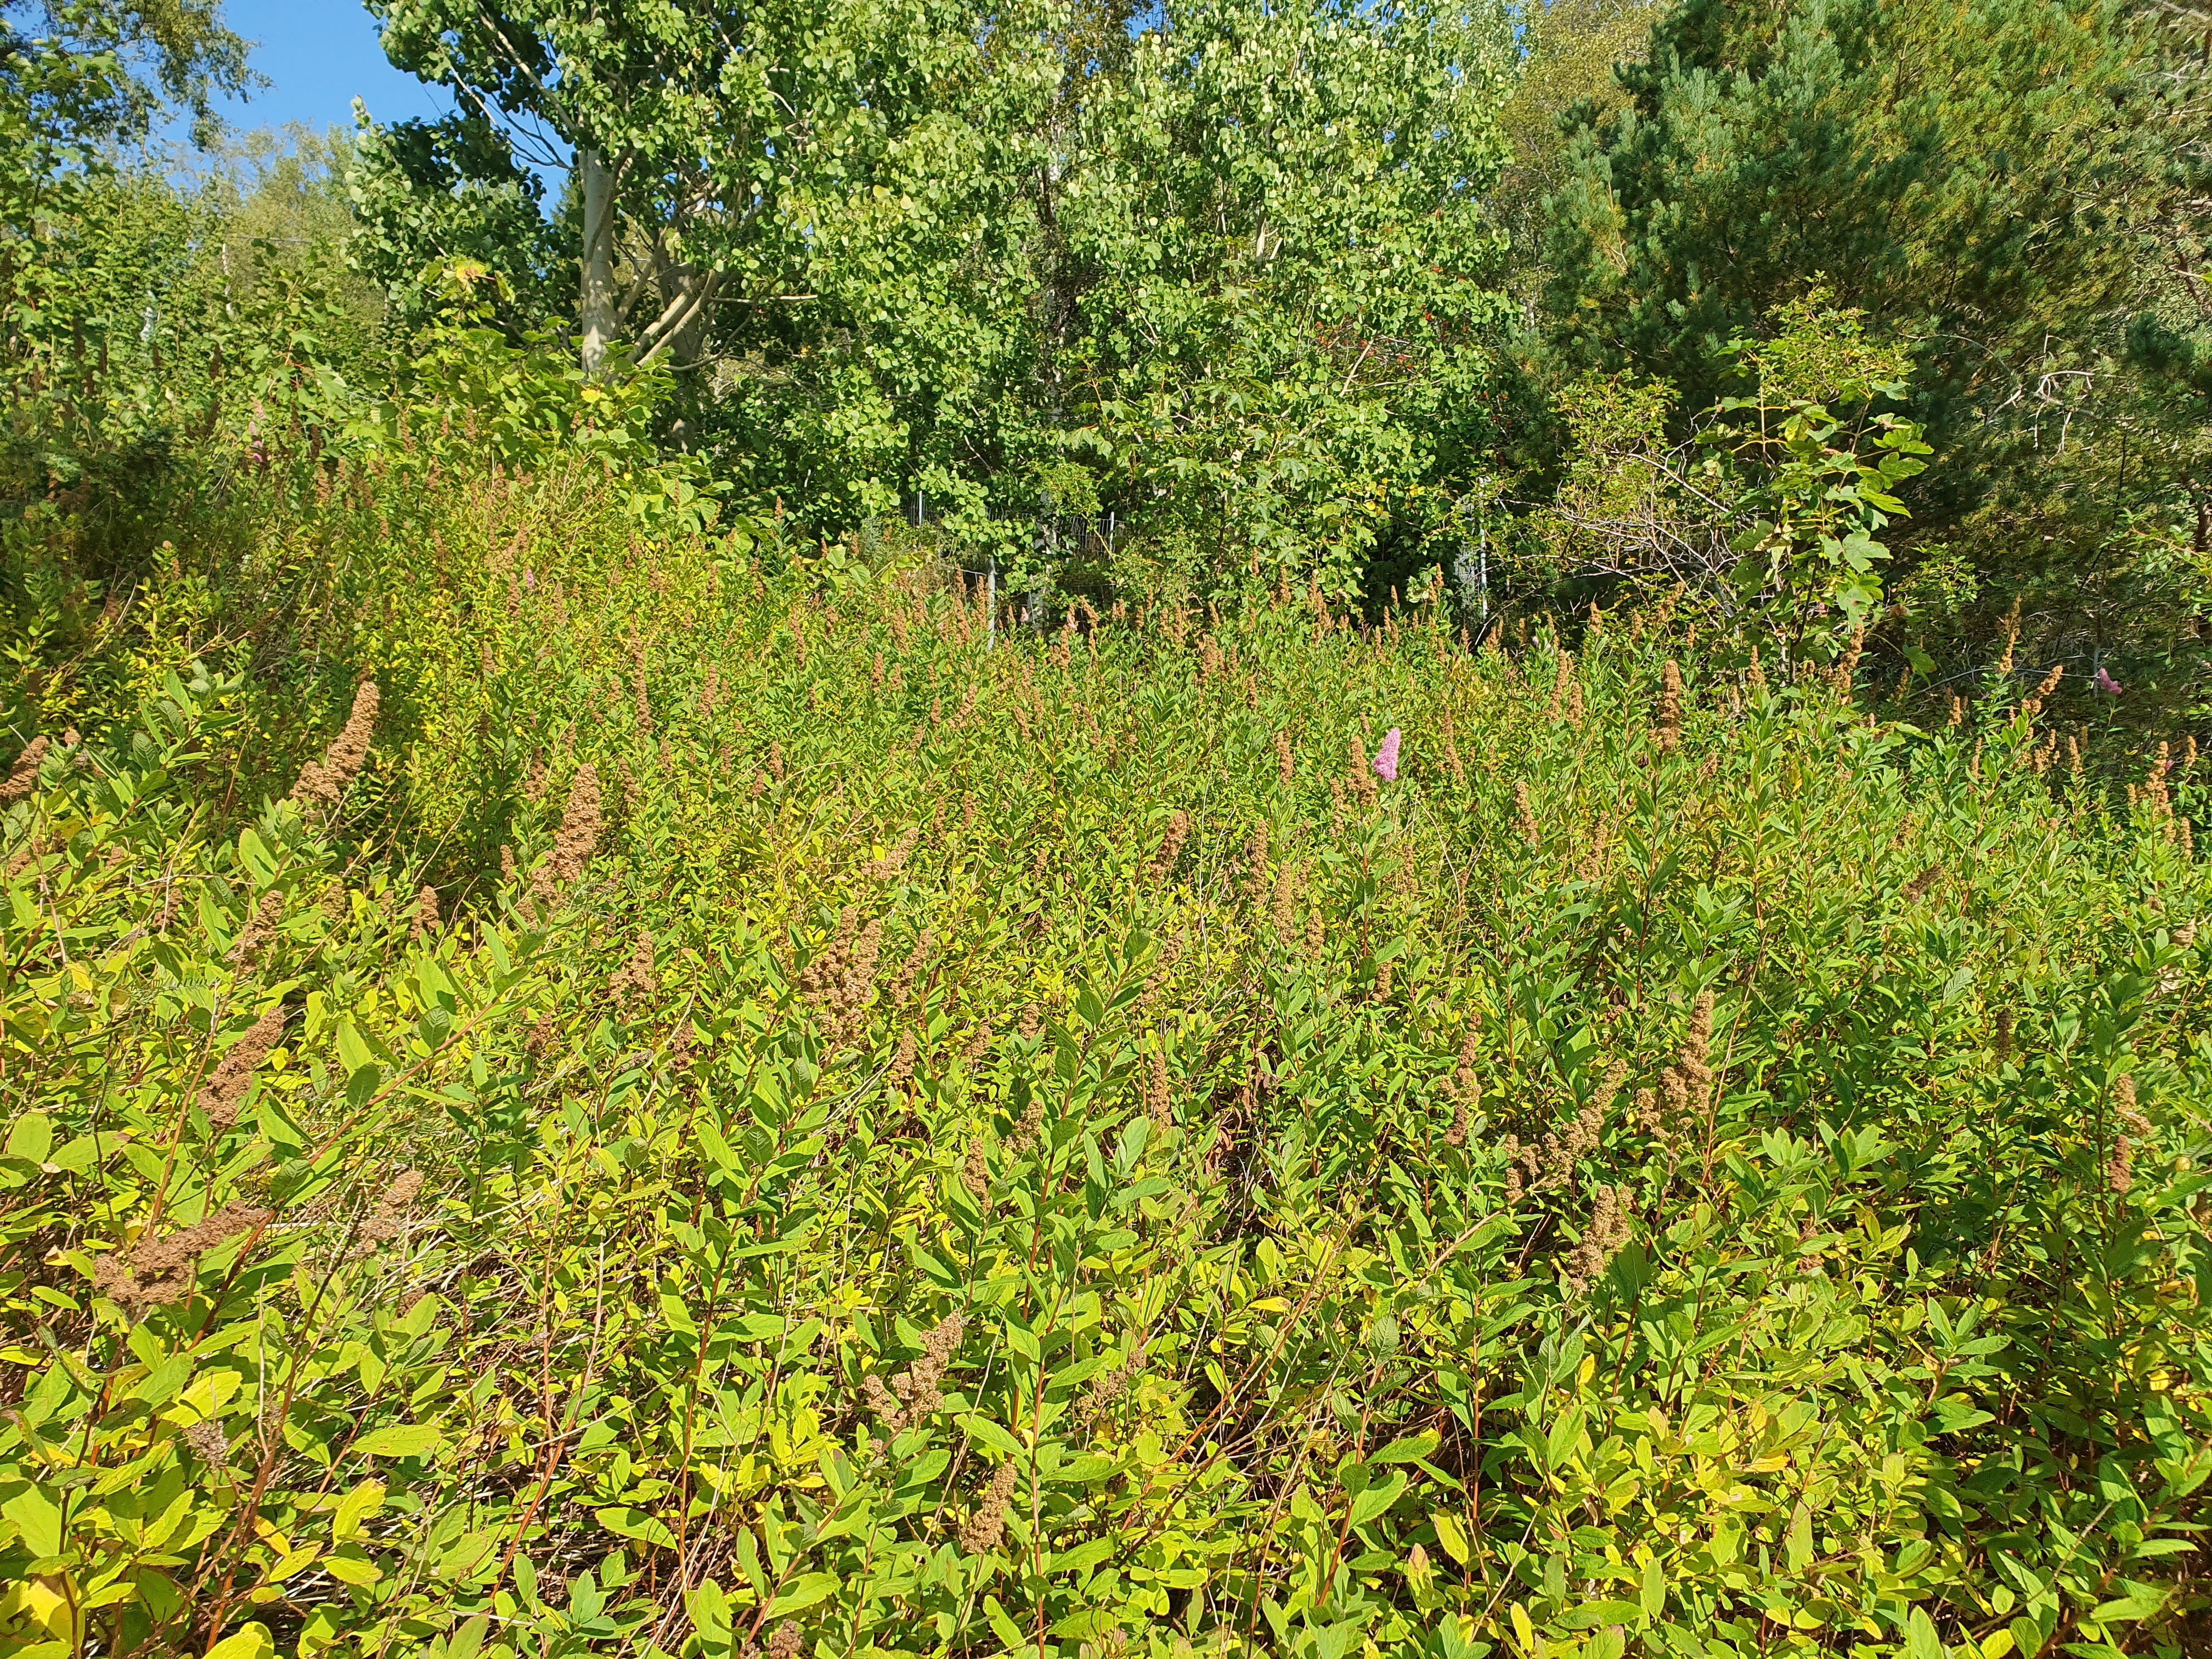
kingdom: Plantae
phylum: Tracheophyta
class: Magnoliopsida
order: Rosales
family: Rosaceae
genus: Spiraea
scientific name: Spiraea rosalba
